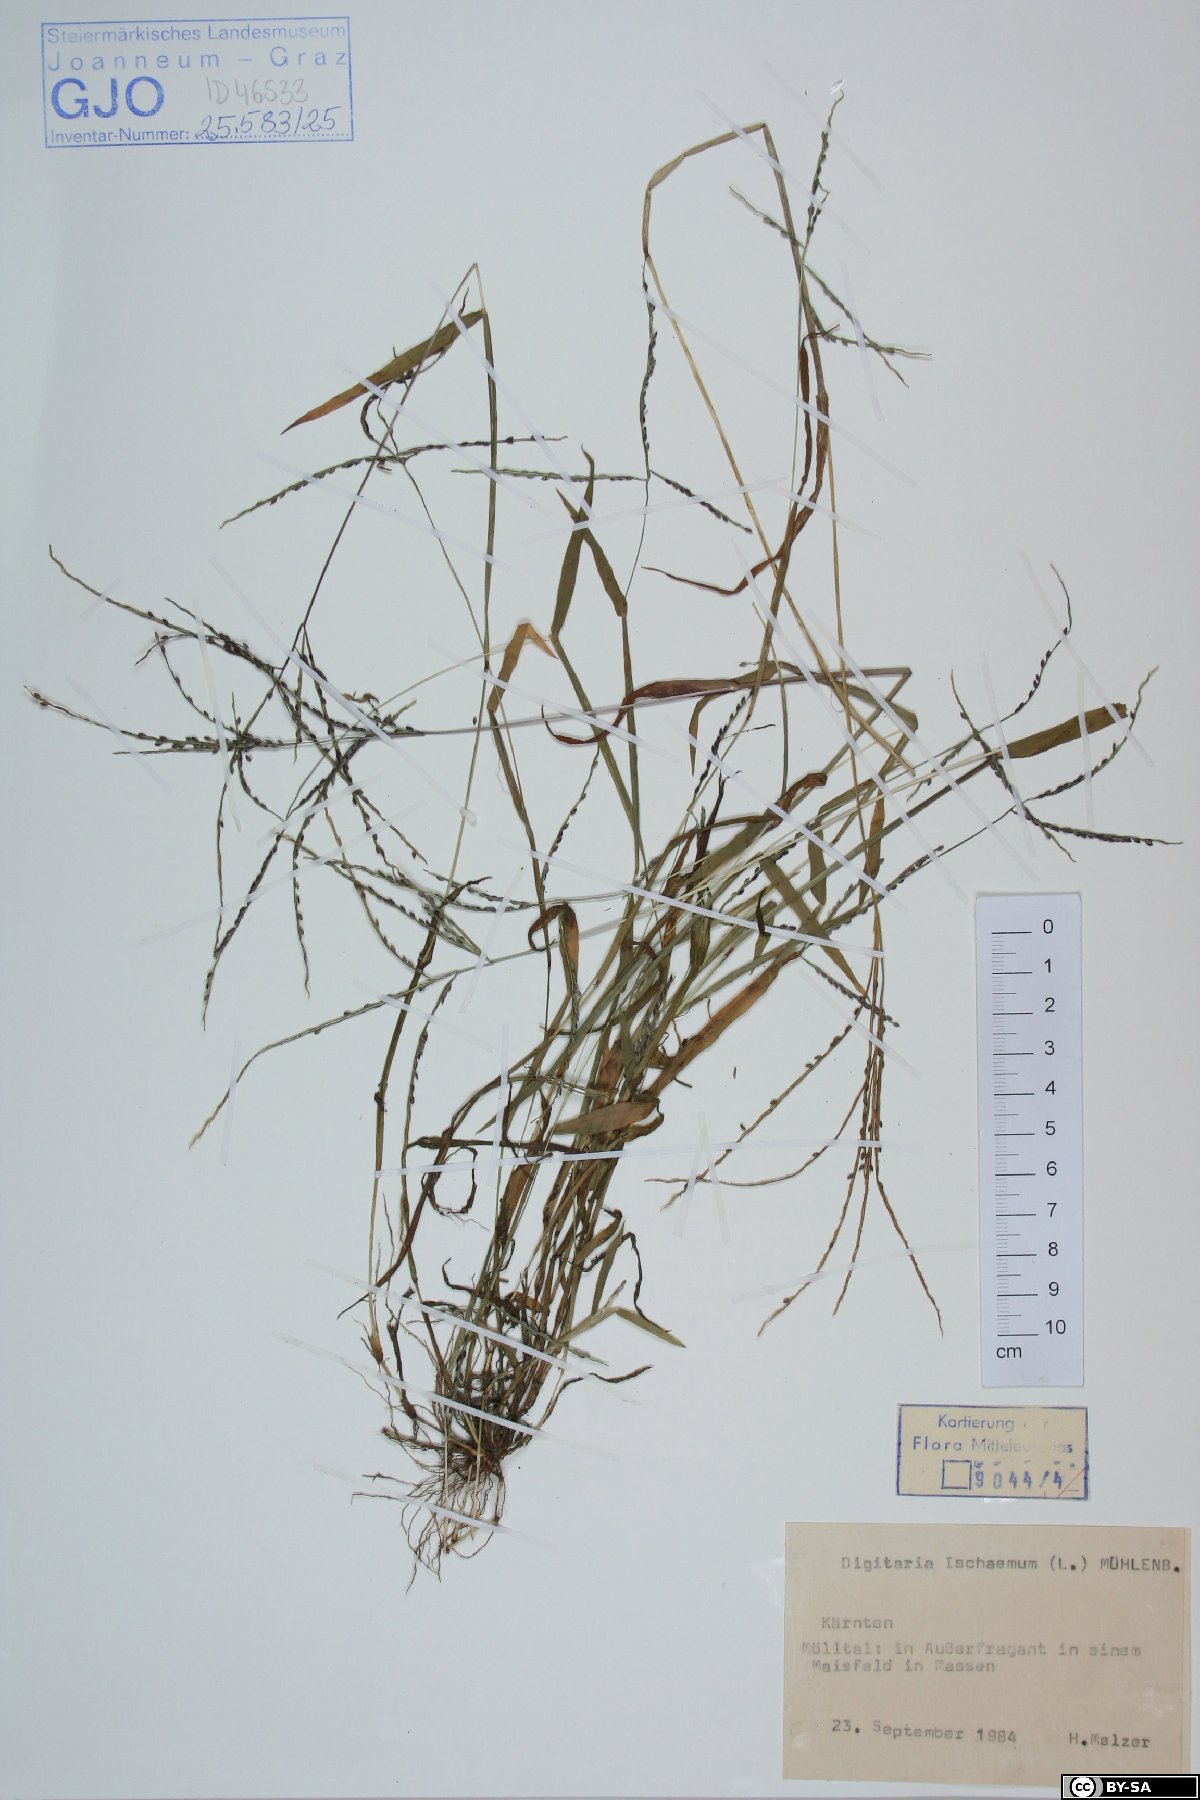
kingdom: Plantae
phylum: Tracheophyta
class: Liliopsida
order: Poales
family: Poaceae
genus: Digitaria
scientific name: Digitaria ischaemum
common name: Smooth crabgrass
